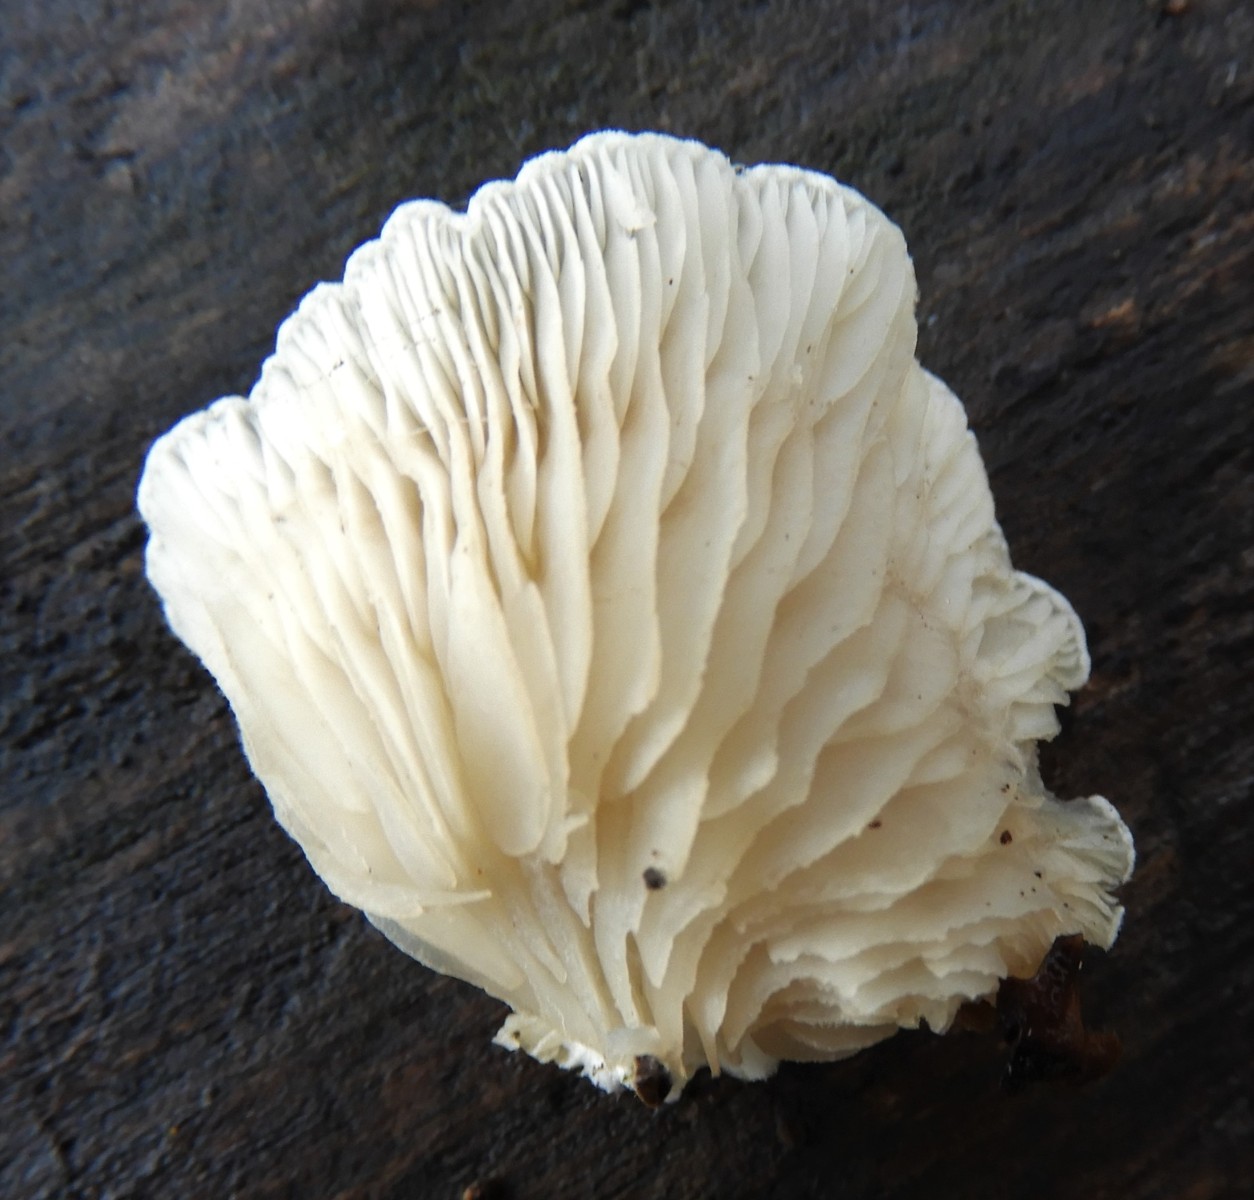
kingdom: Fungi
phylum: Basidiomycota
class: Agaricomycetes
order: Agaricales
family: Crepidotaceae
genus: Crepidotus
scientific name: Crepidotus mollis
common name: blød muslingesvamp
